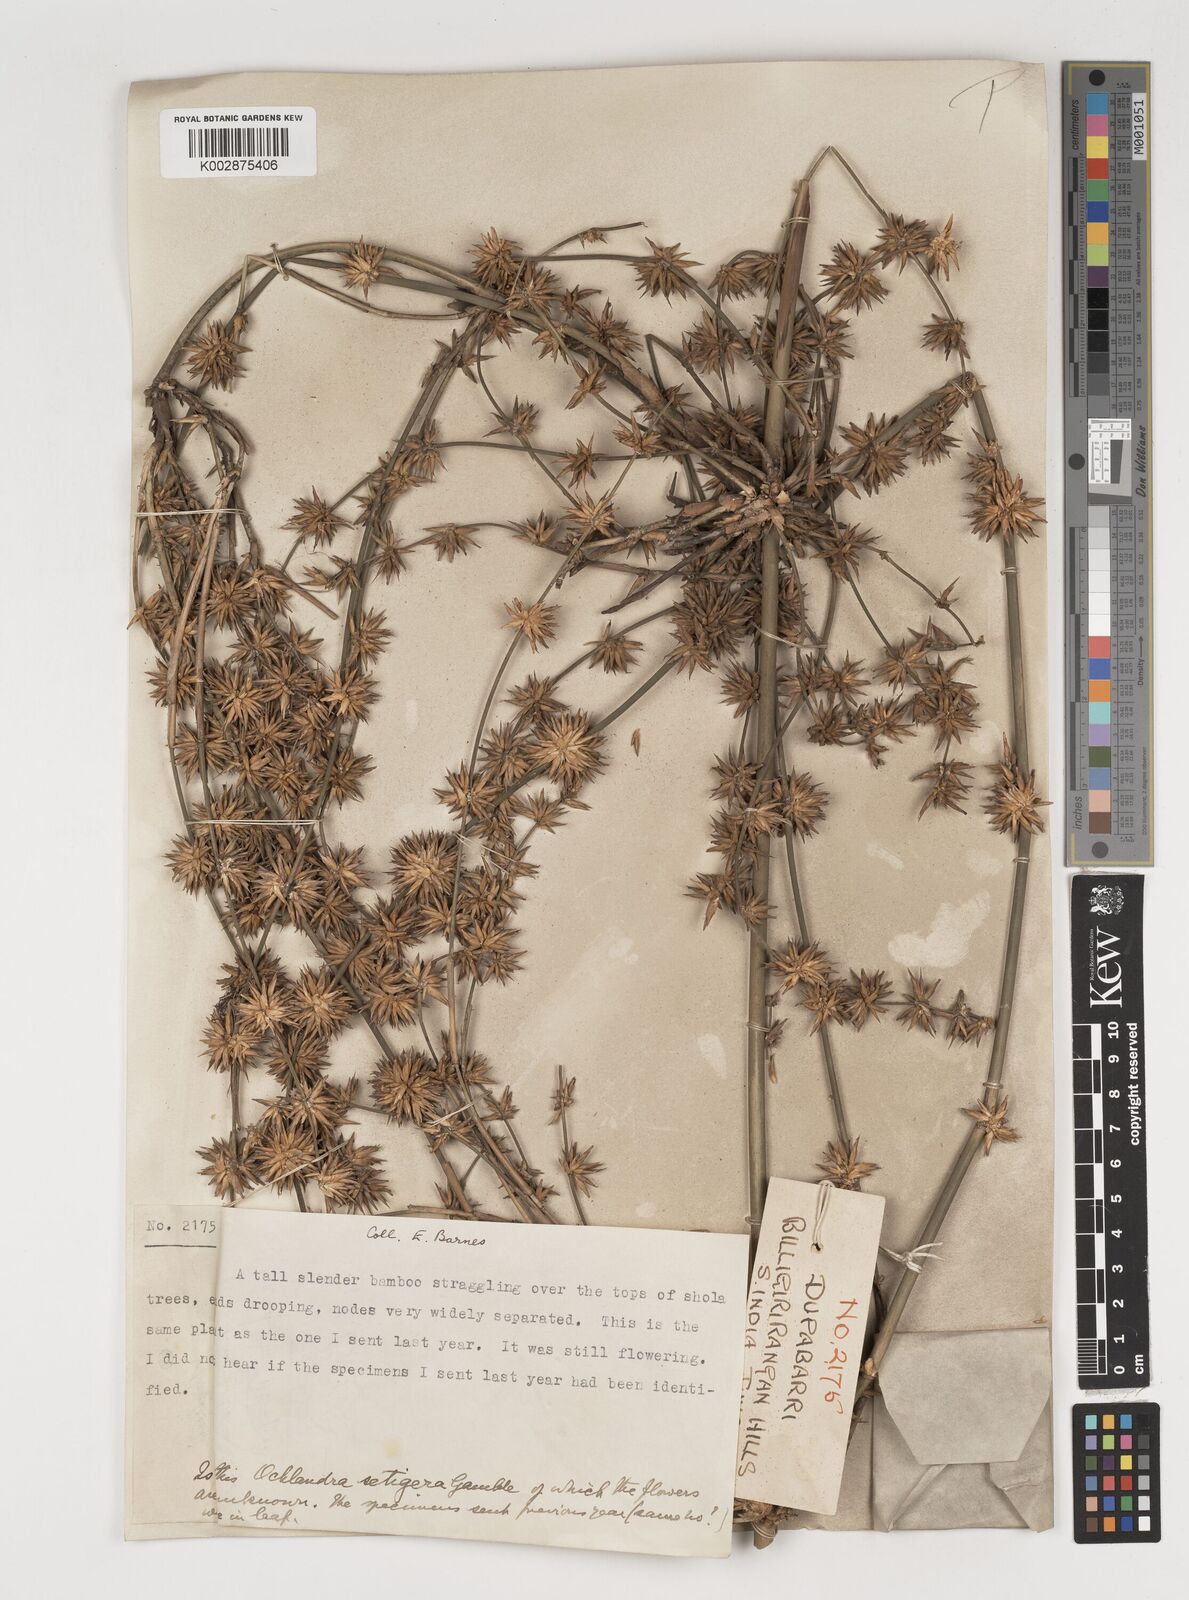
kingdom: Plantae
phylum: Tracheophyta
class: Liliopsida
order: Poales
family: Poaceae
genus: Dendrocalamus
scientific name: Dendrocalamus
